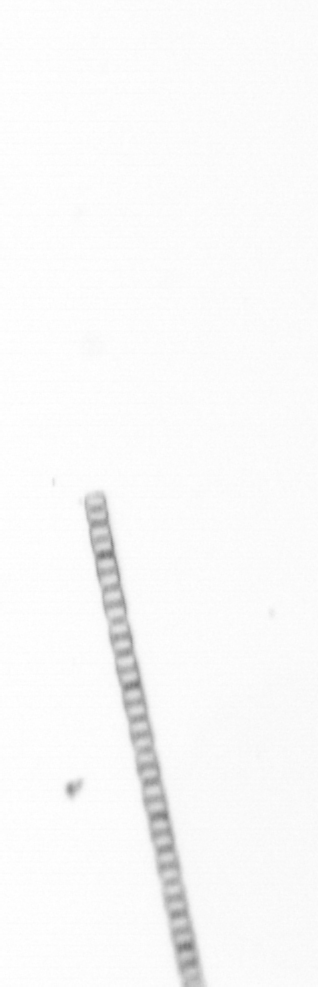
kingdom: Chromista
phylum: Ochrophyta
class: Bacillariophyceae
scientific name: Bacillariophyceae
